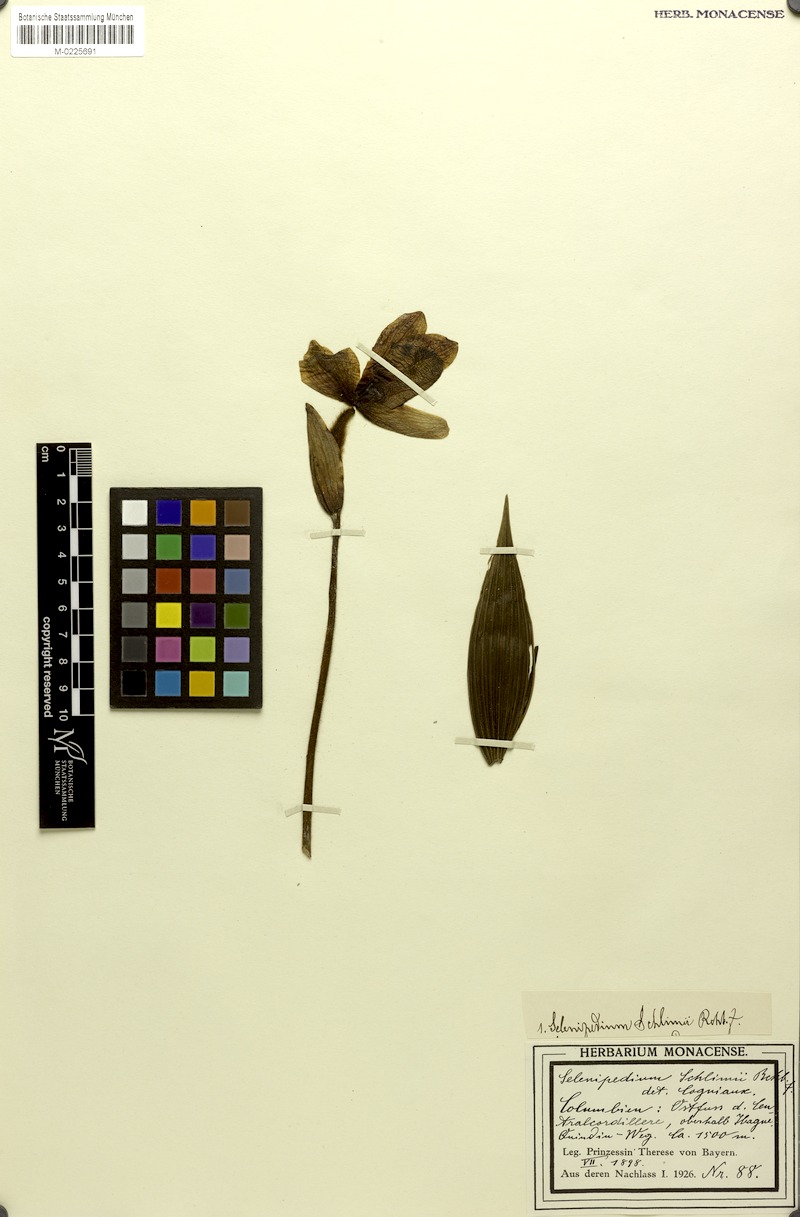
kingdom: Plantae
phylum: Tracheophyta
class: Liliopsida
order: Asparagales
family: Orchidaceae
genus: Phragmipedium
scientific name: Phragmipedium schlimii
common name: Schlimm's phragmipedium
